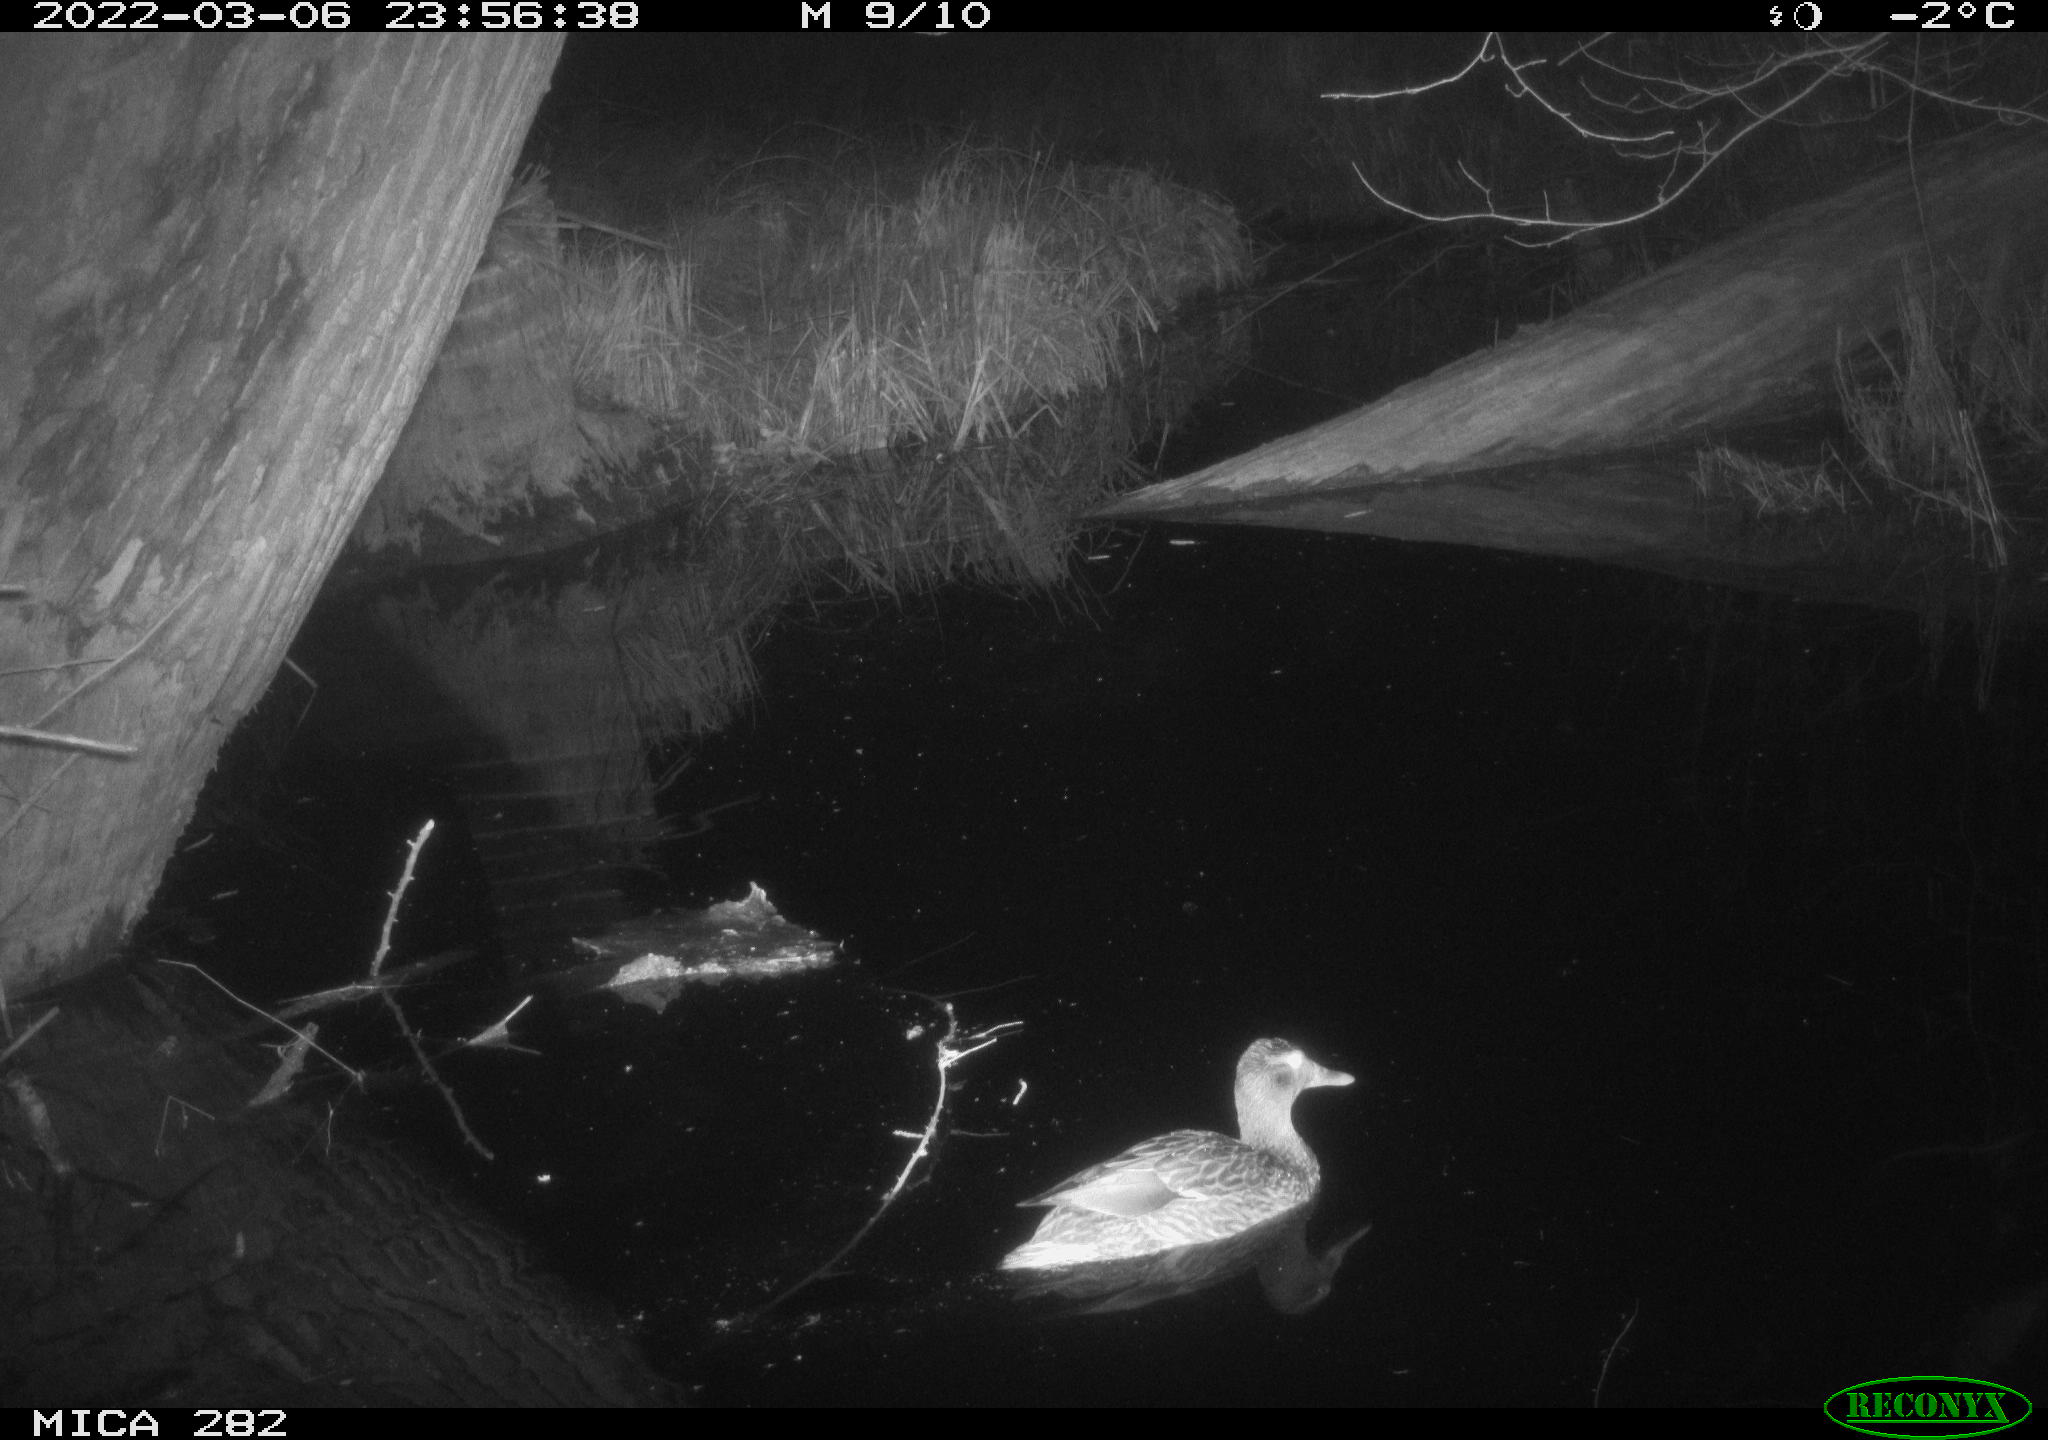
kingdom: Animalia
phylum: Chordata
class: Aves
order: Anseriformes
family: Anatidae
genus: Anas
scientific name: Anas platyrhynchos
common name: Mallard
